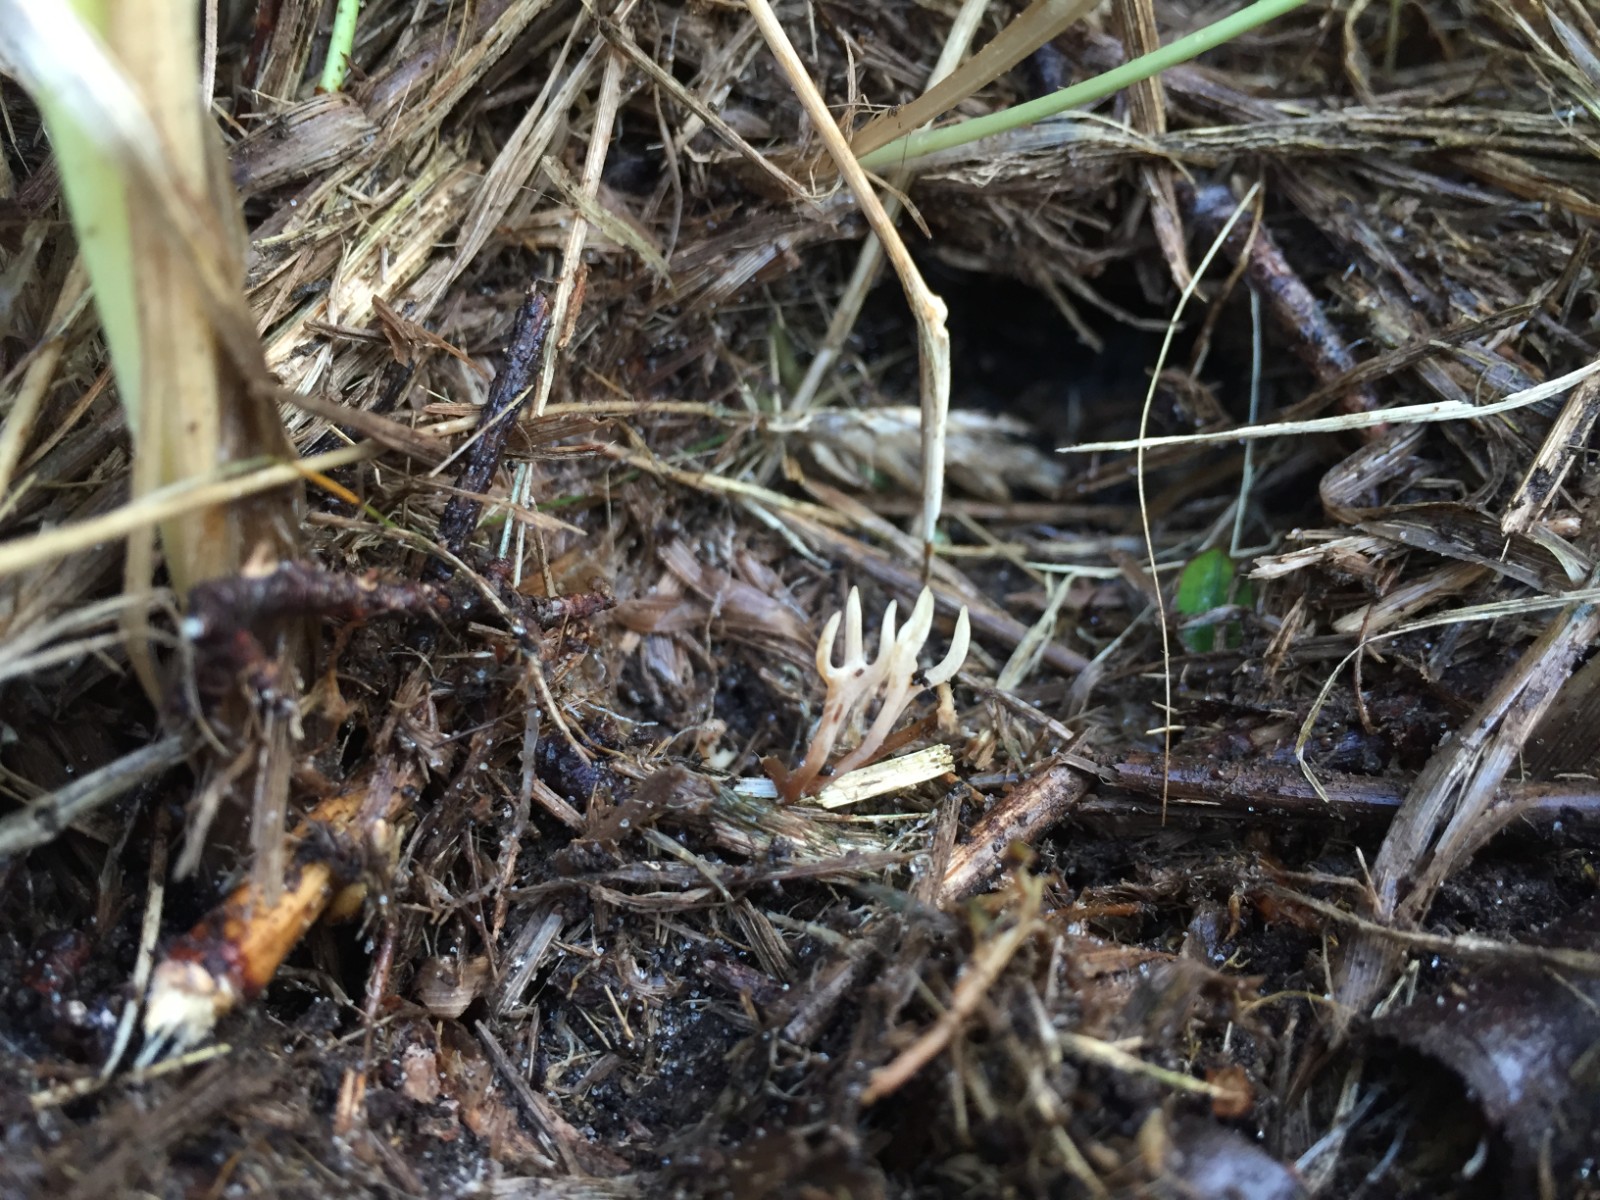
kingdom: Fungi
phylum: Basidiomycota
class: Agaricomycetes
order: Agaricales
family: Clavariaceae
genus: Ramariopsis
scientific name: Ramariopsis subtilis
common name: Slender coral
